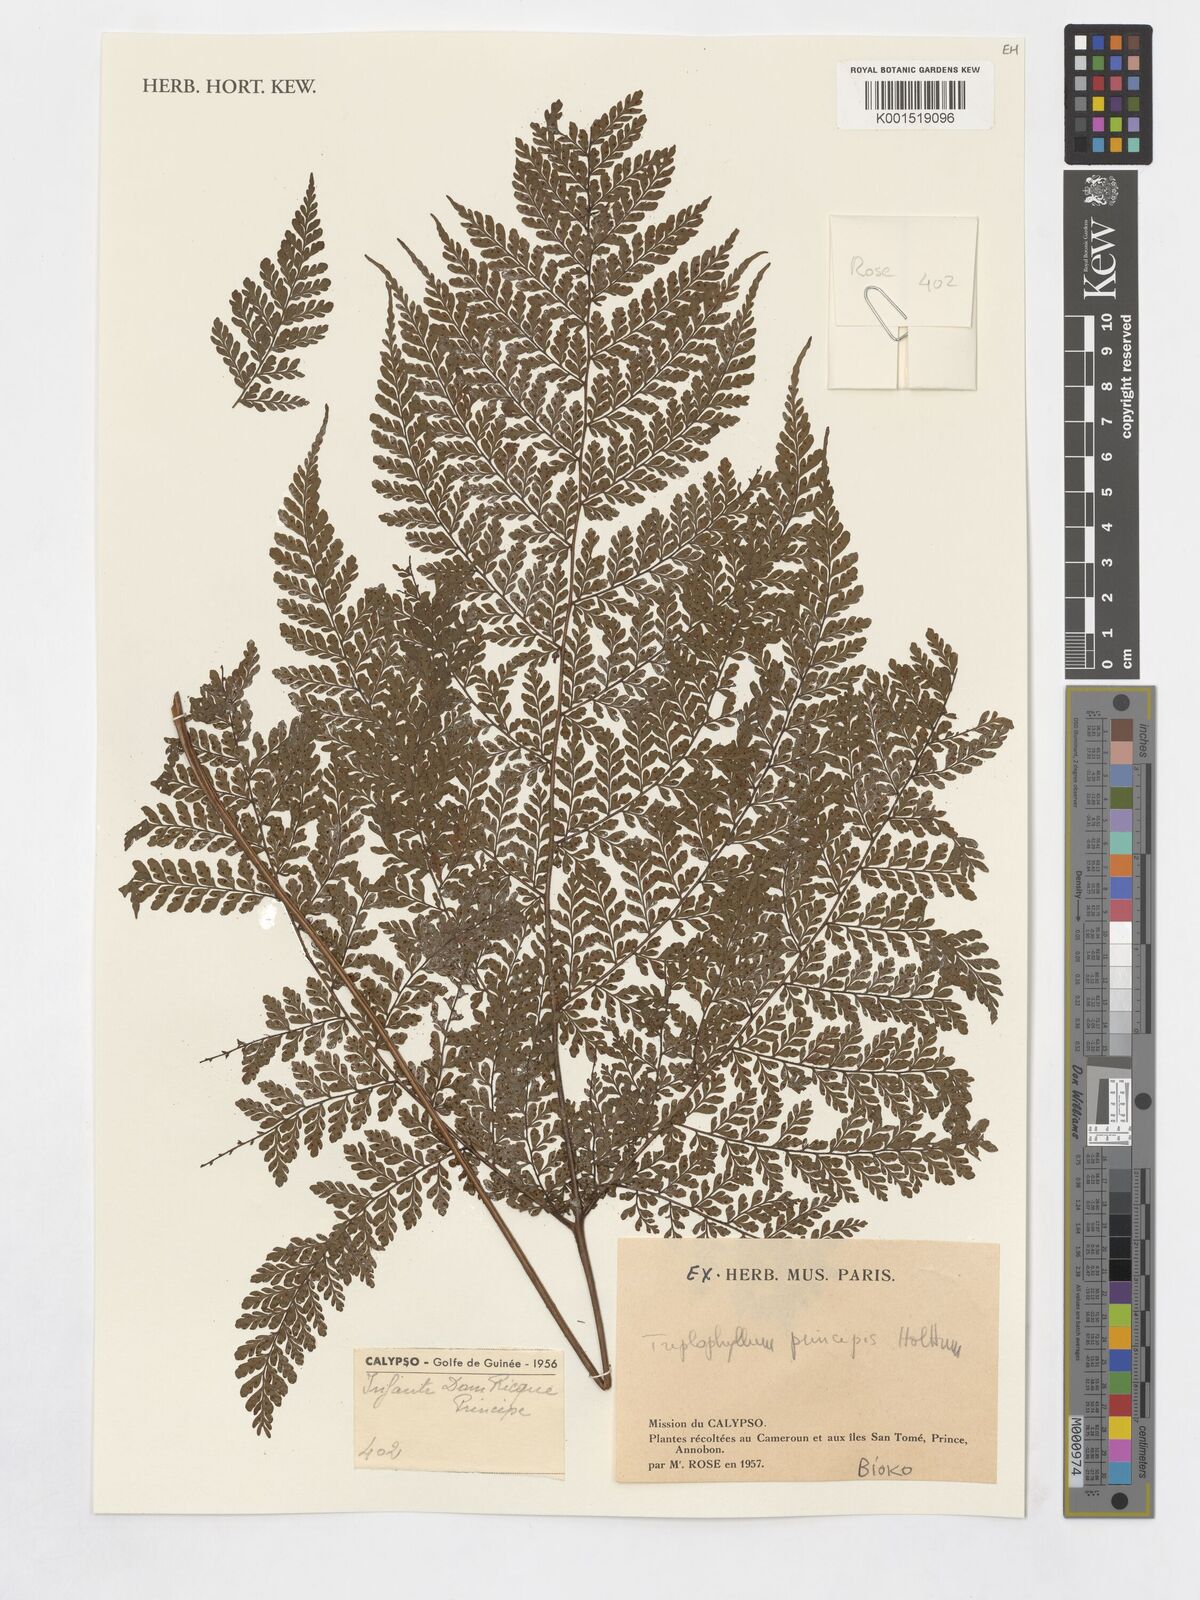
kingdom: Plantae
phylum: Tracheophyta
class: Polypodiopsida
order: Polypodiales
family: Tectariaceae
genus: Triplophyllum
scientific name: Triplophyllum principis
